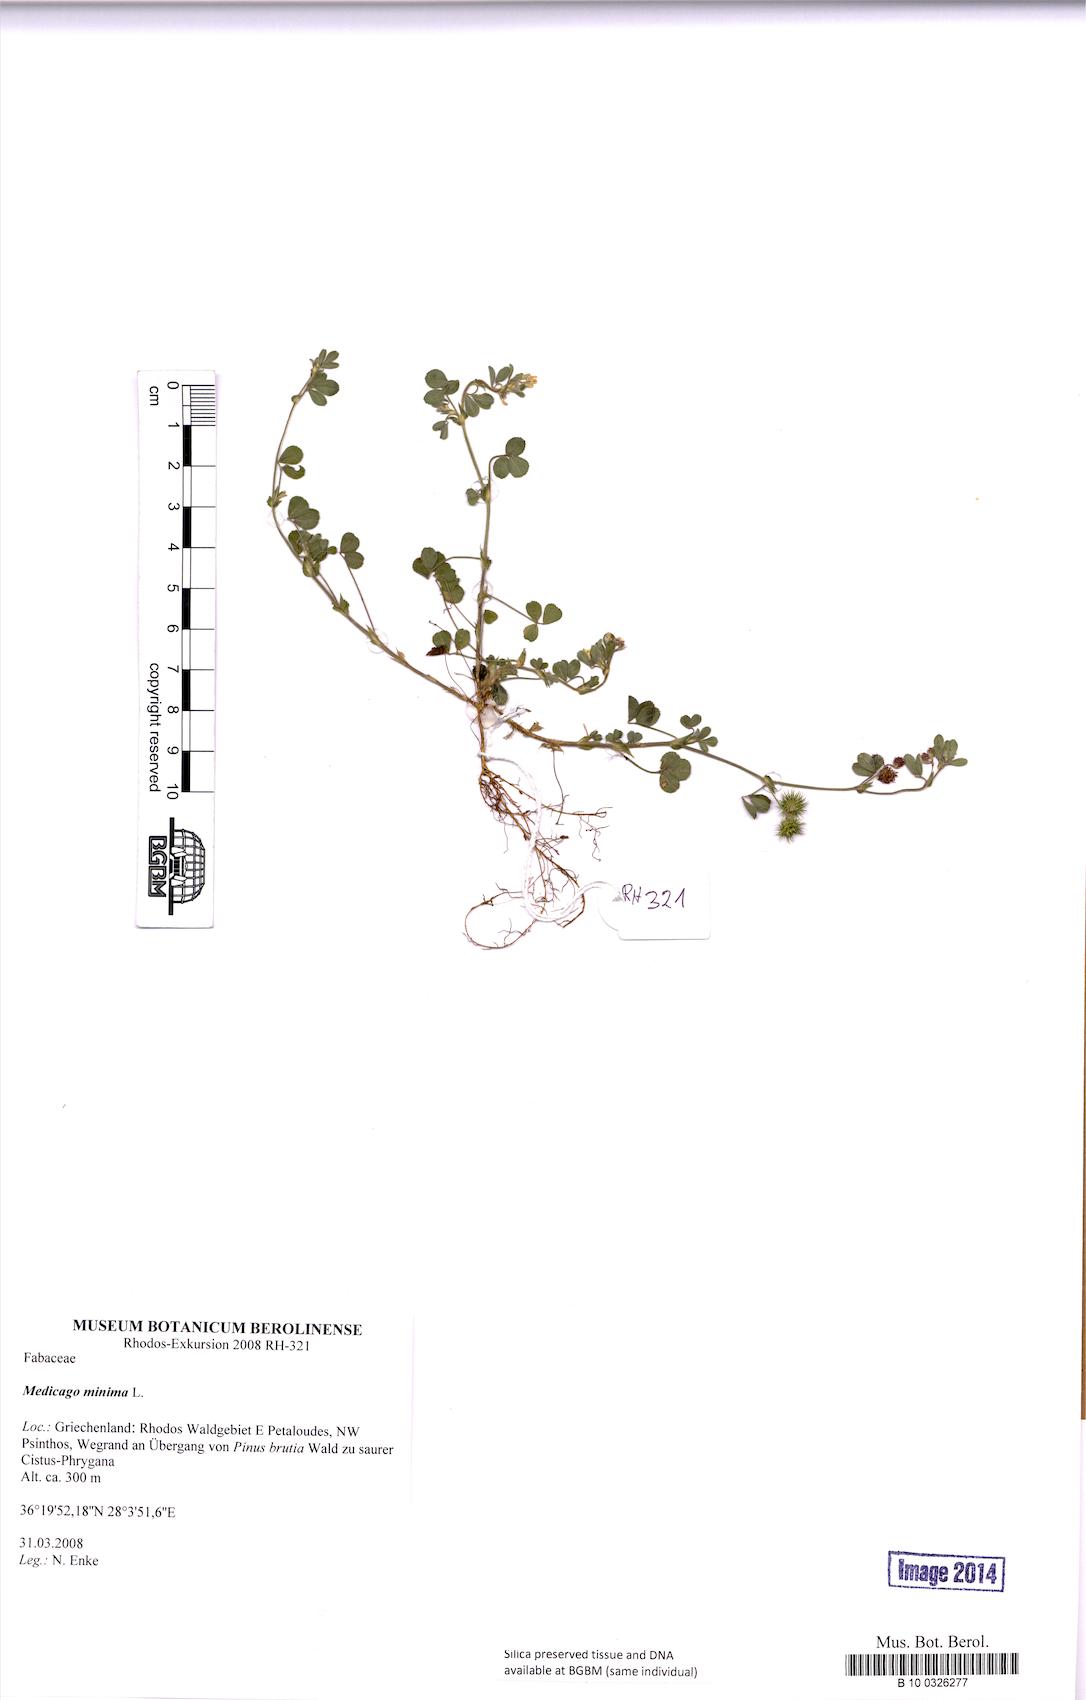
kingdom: Plantae
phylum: Tracheophyta
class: Magnoliopsida
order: Fabales
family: Fabaceae
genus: Medicago
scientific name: Medicago minima
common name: Little bur-clover
